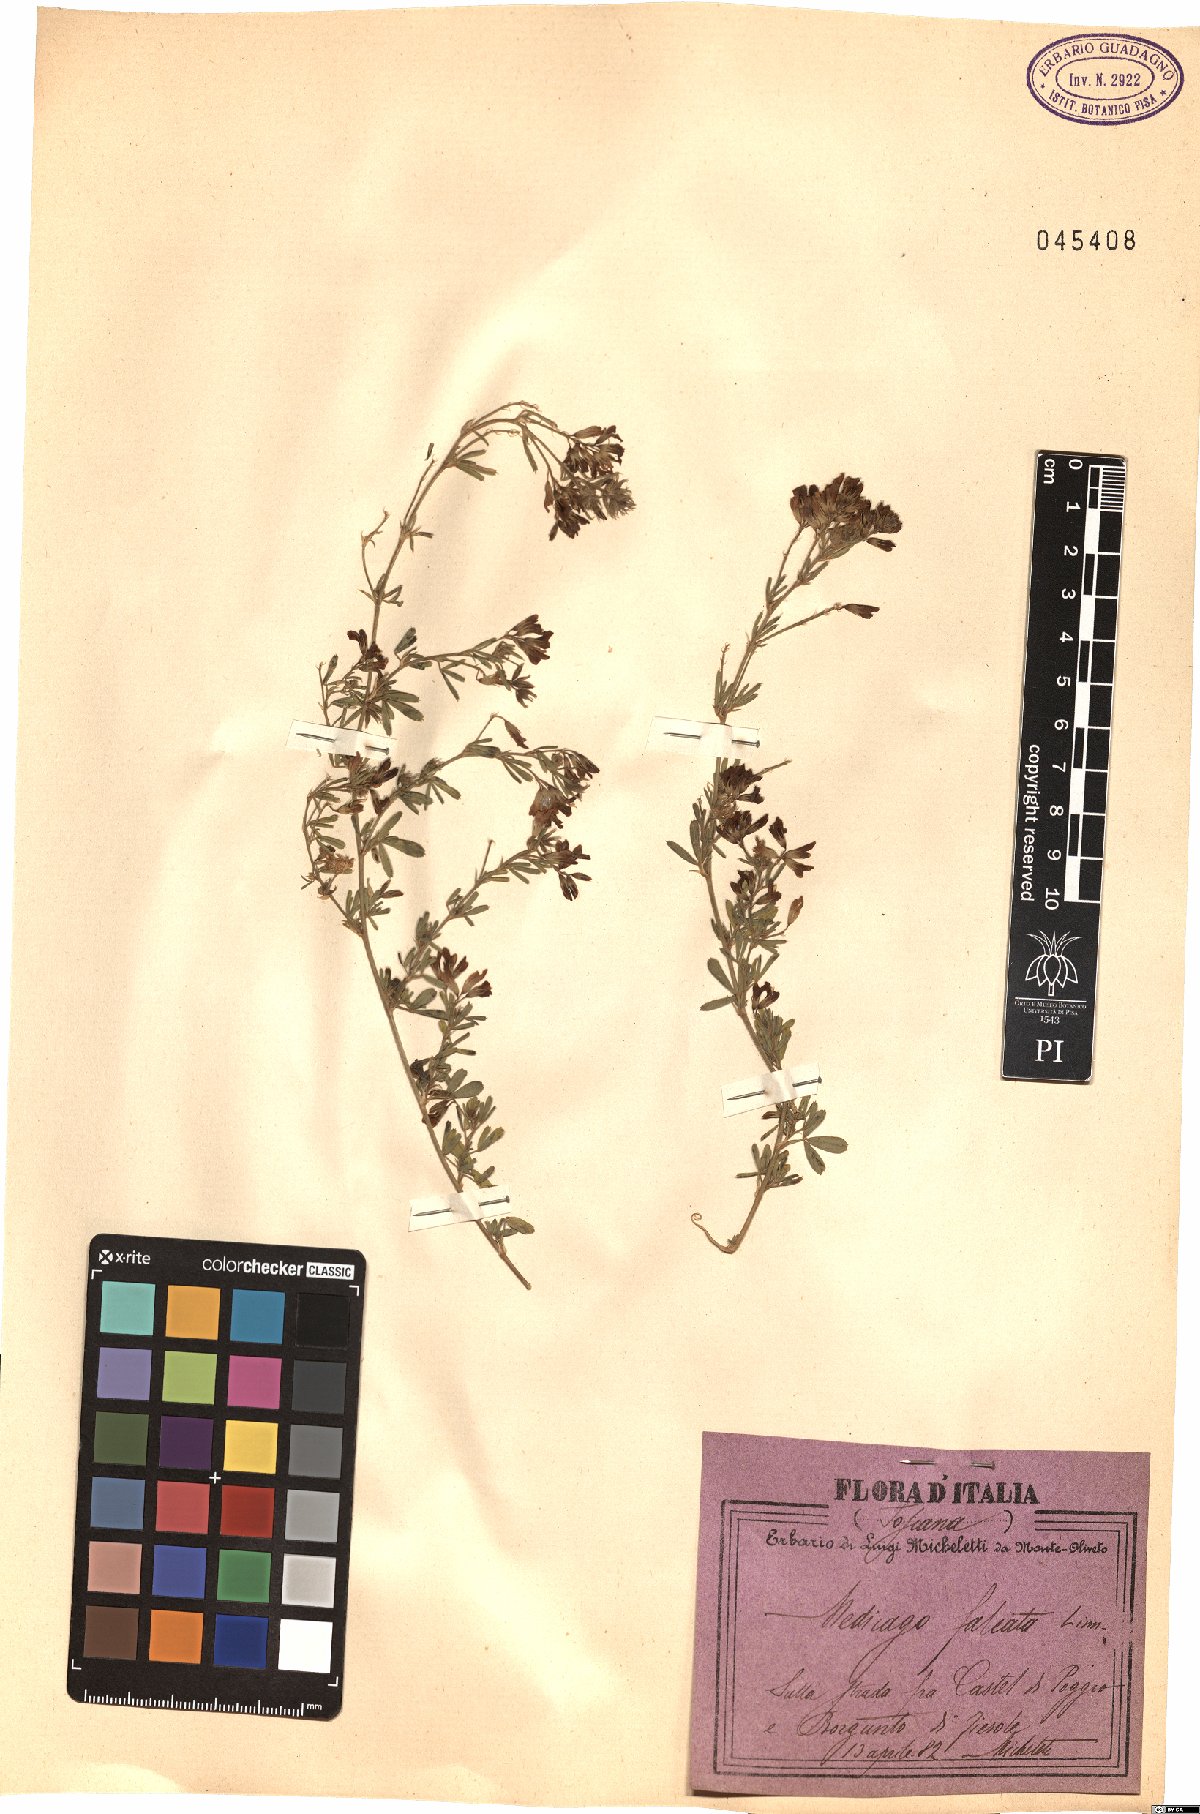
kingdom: Plantae
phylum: Tracheophyta
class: Magnoliopsida
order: Fabales
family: Fabaceae
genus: Medicago
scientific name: Medicago falcata
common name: Sickle medick
